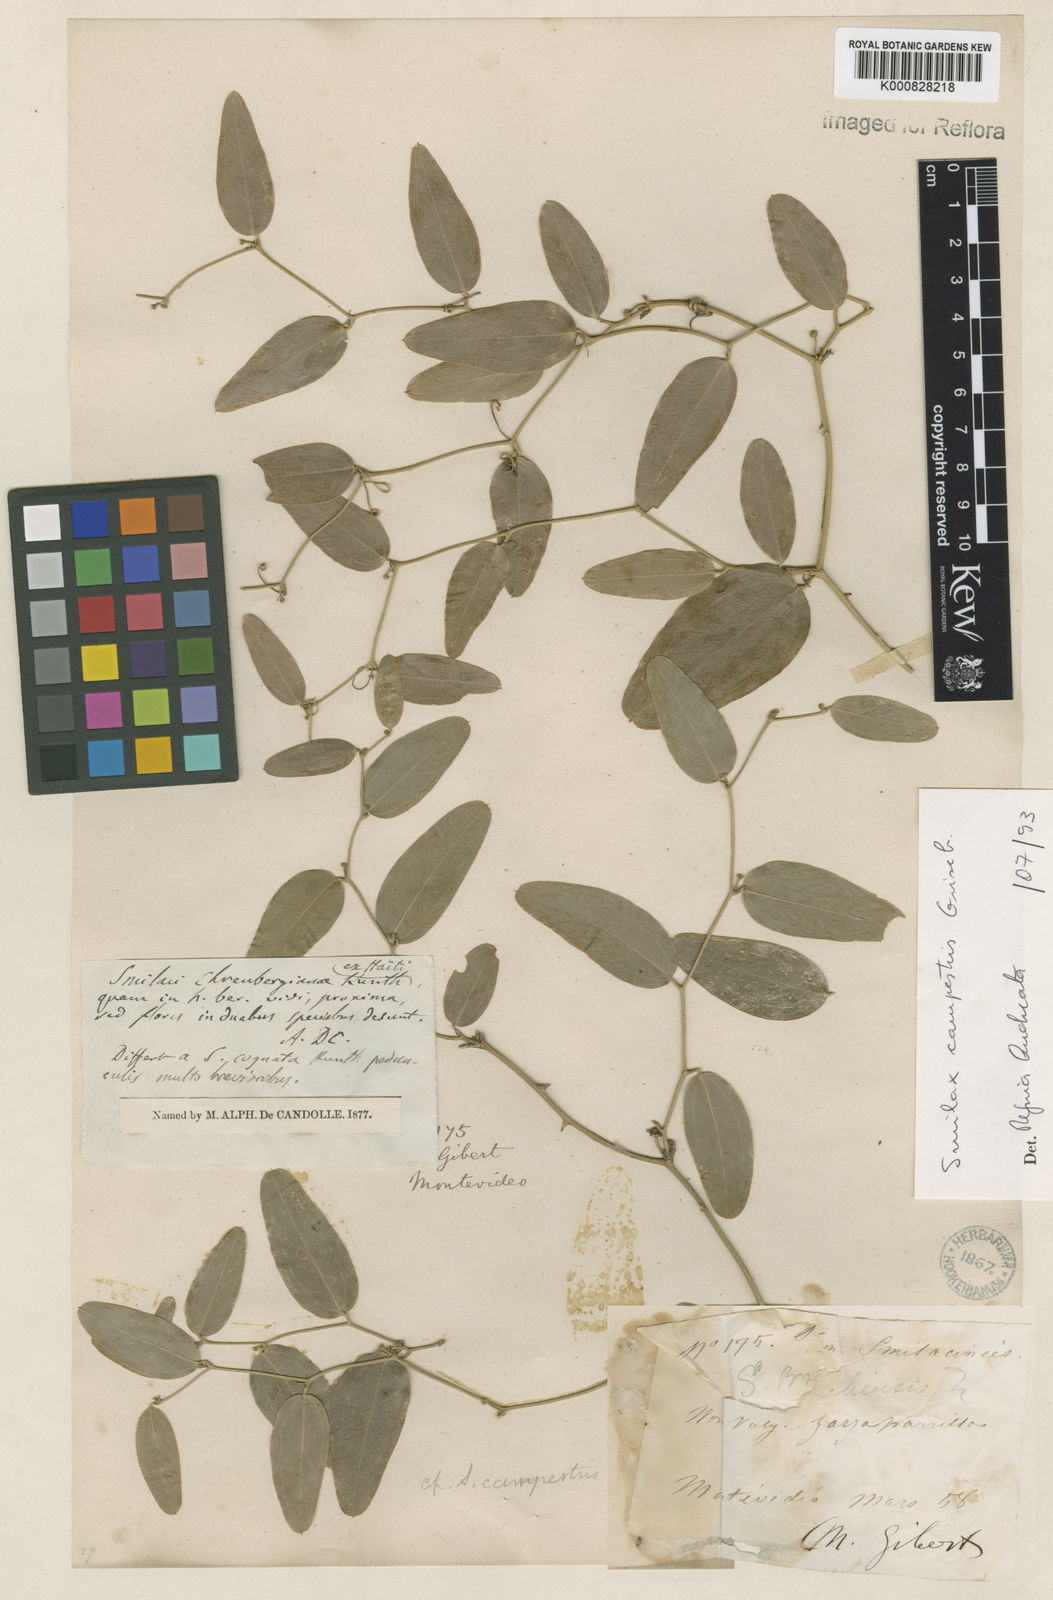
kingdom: Plantae
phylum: Tracheophyta
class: Liliopsida
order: Liliales
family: Smilacaceae
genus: Smilax
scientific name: Smilax campestris
